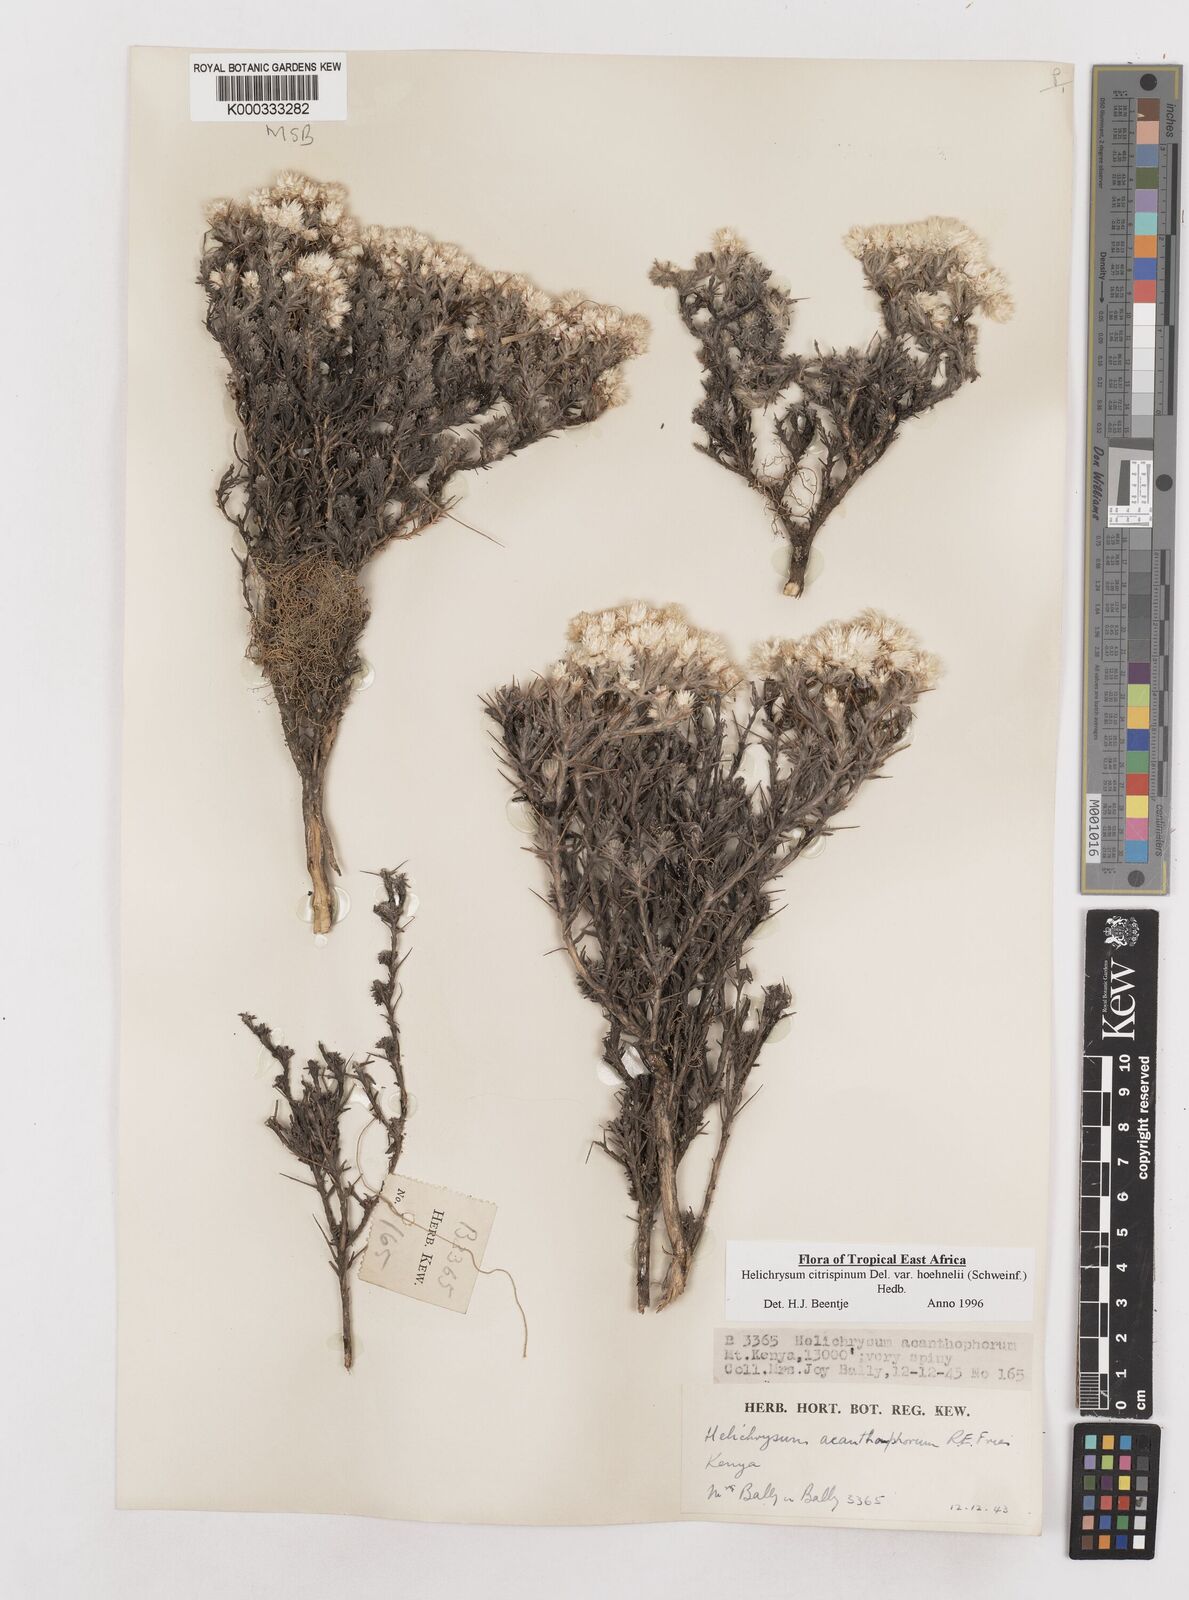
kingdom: Plantae
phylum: Tracheophyta
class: Magnoliopsida
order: Asterales
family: Asteraceae
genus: Helichrysum
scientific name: Helichrysum citrispinum
